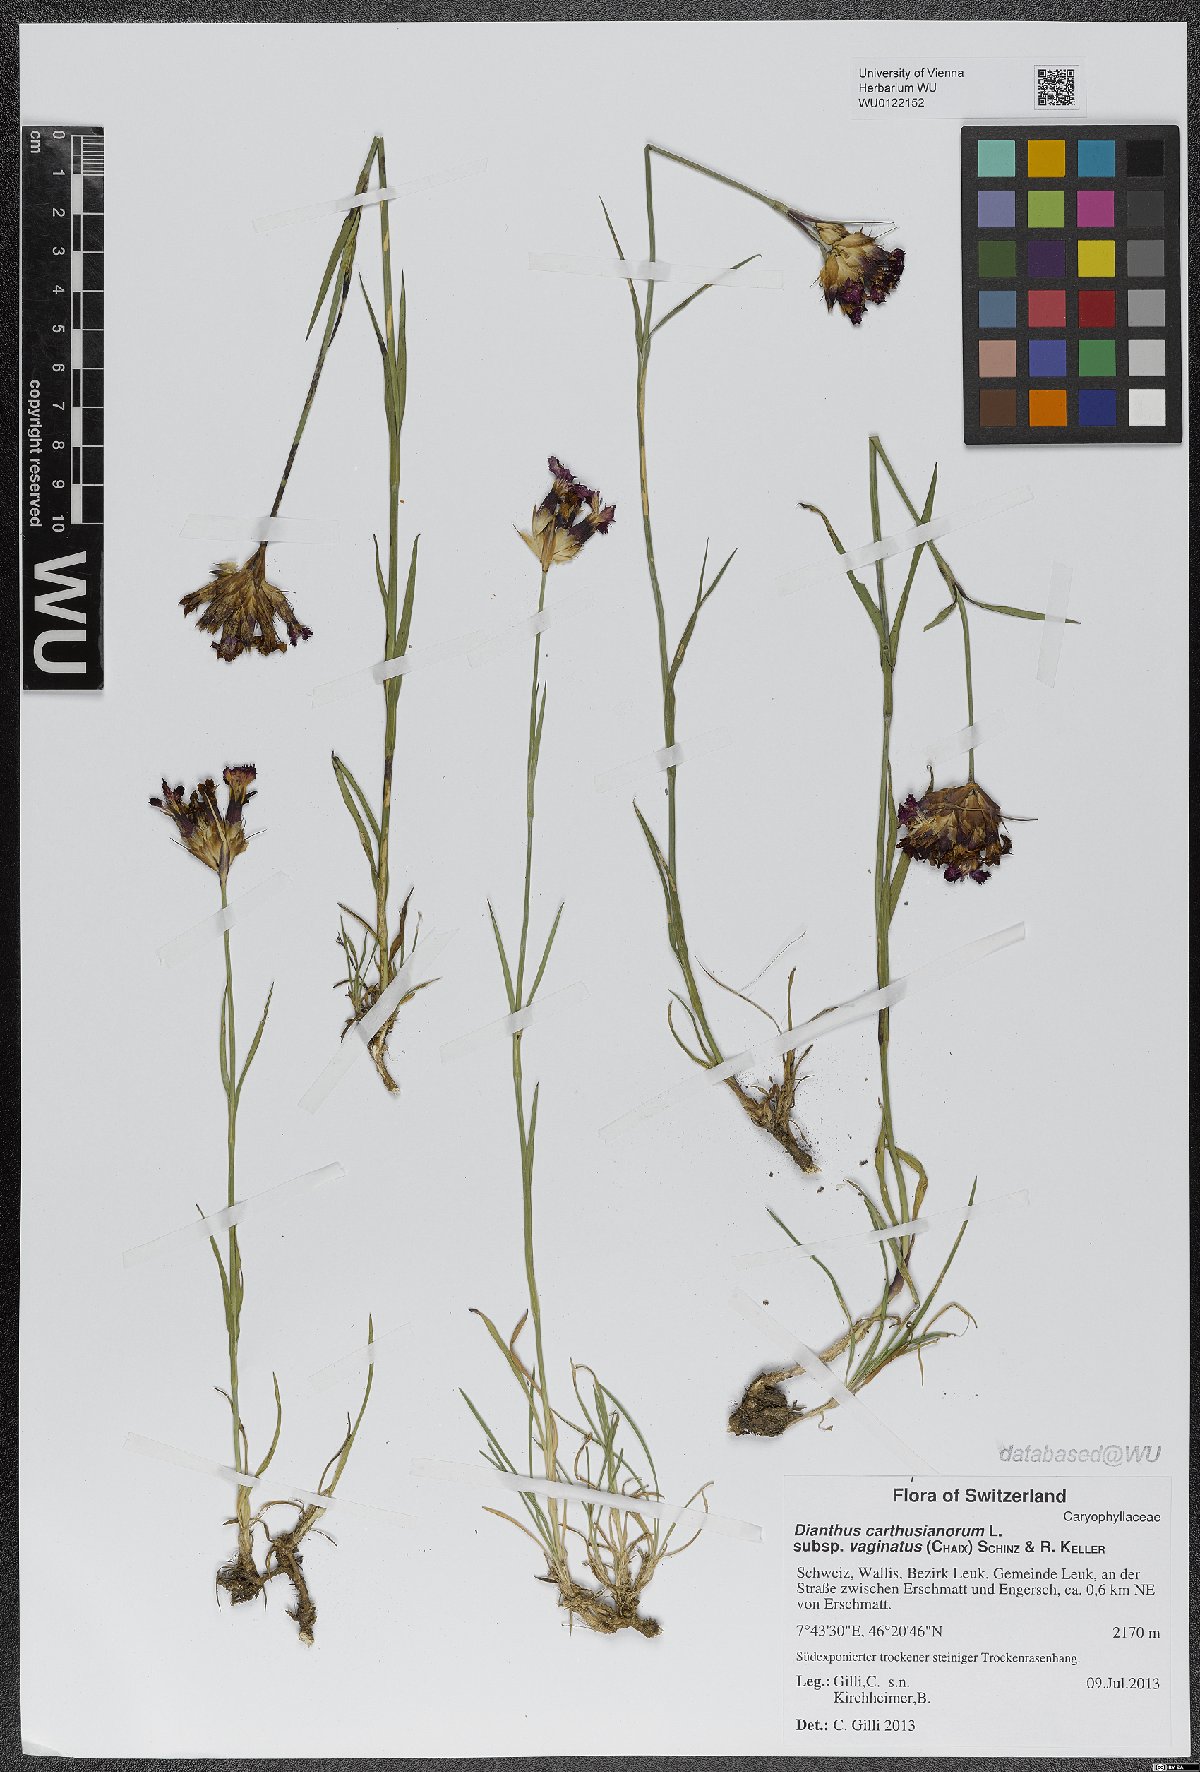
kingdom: Plantae
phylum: Tracheophyta
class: Magnoliopsida
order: Caryophyllales
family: Caryophyllaceae
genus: Dianthus
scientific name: Dianthus carthusianorum
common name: Carthusian pink
